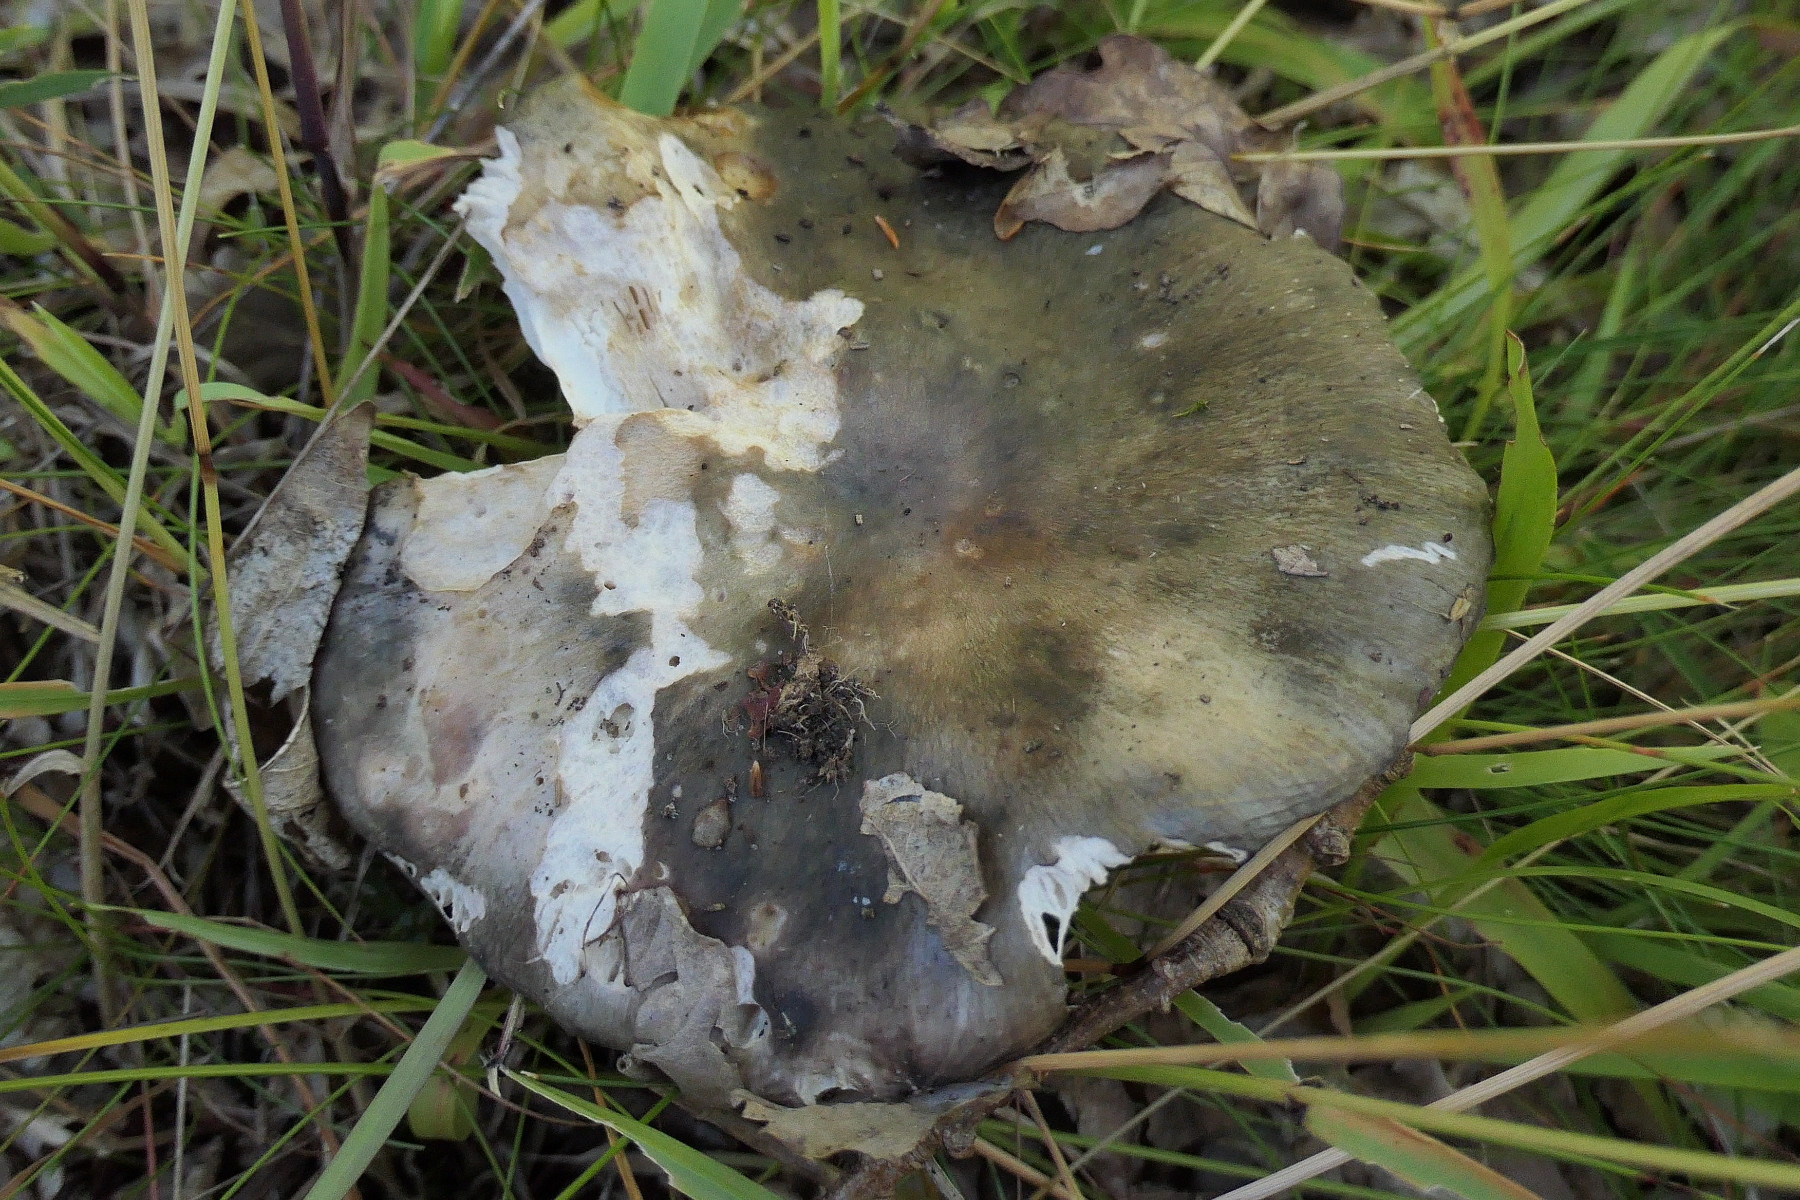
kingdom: Fungi
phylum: Basidiomycota
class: Agaricomycetes
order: Russulales
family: Russulaceae
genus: Russula
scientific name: Russula cyanoxantha
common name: broget skørhat
